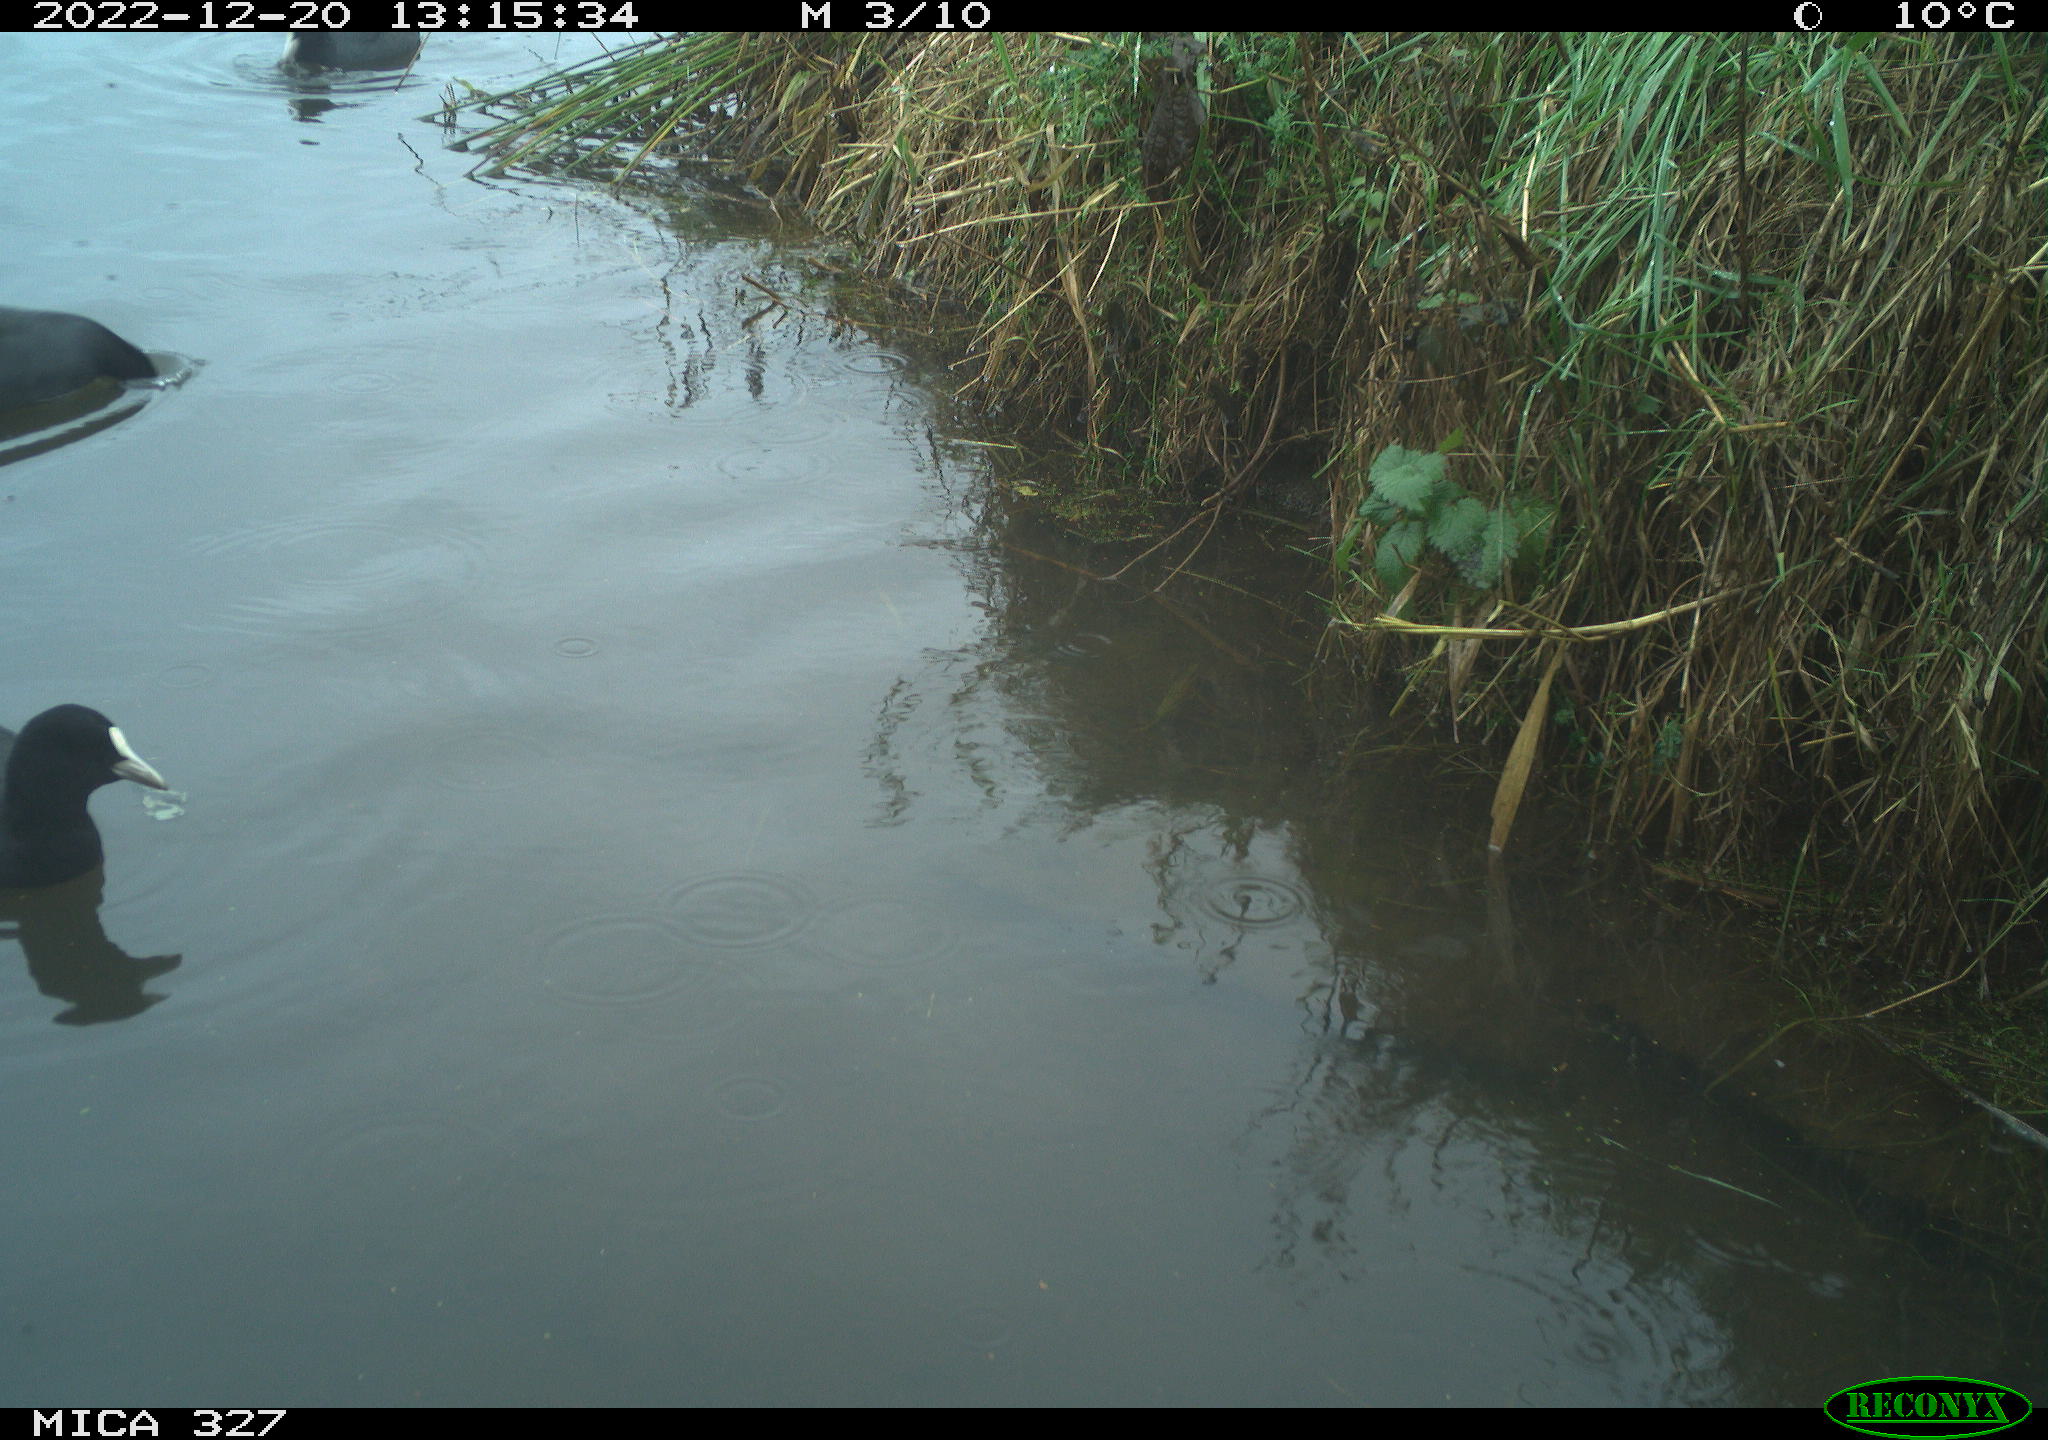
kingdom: Animalia
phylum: Chordata
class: Aves
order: Gruiformes
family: Rallidae
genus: Fulica
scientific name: Fulica atra
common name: Eurasian coot
